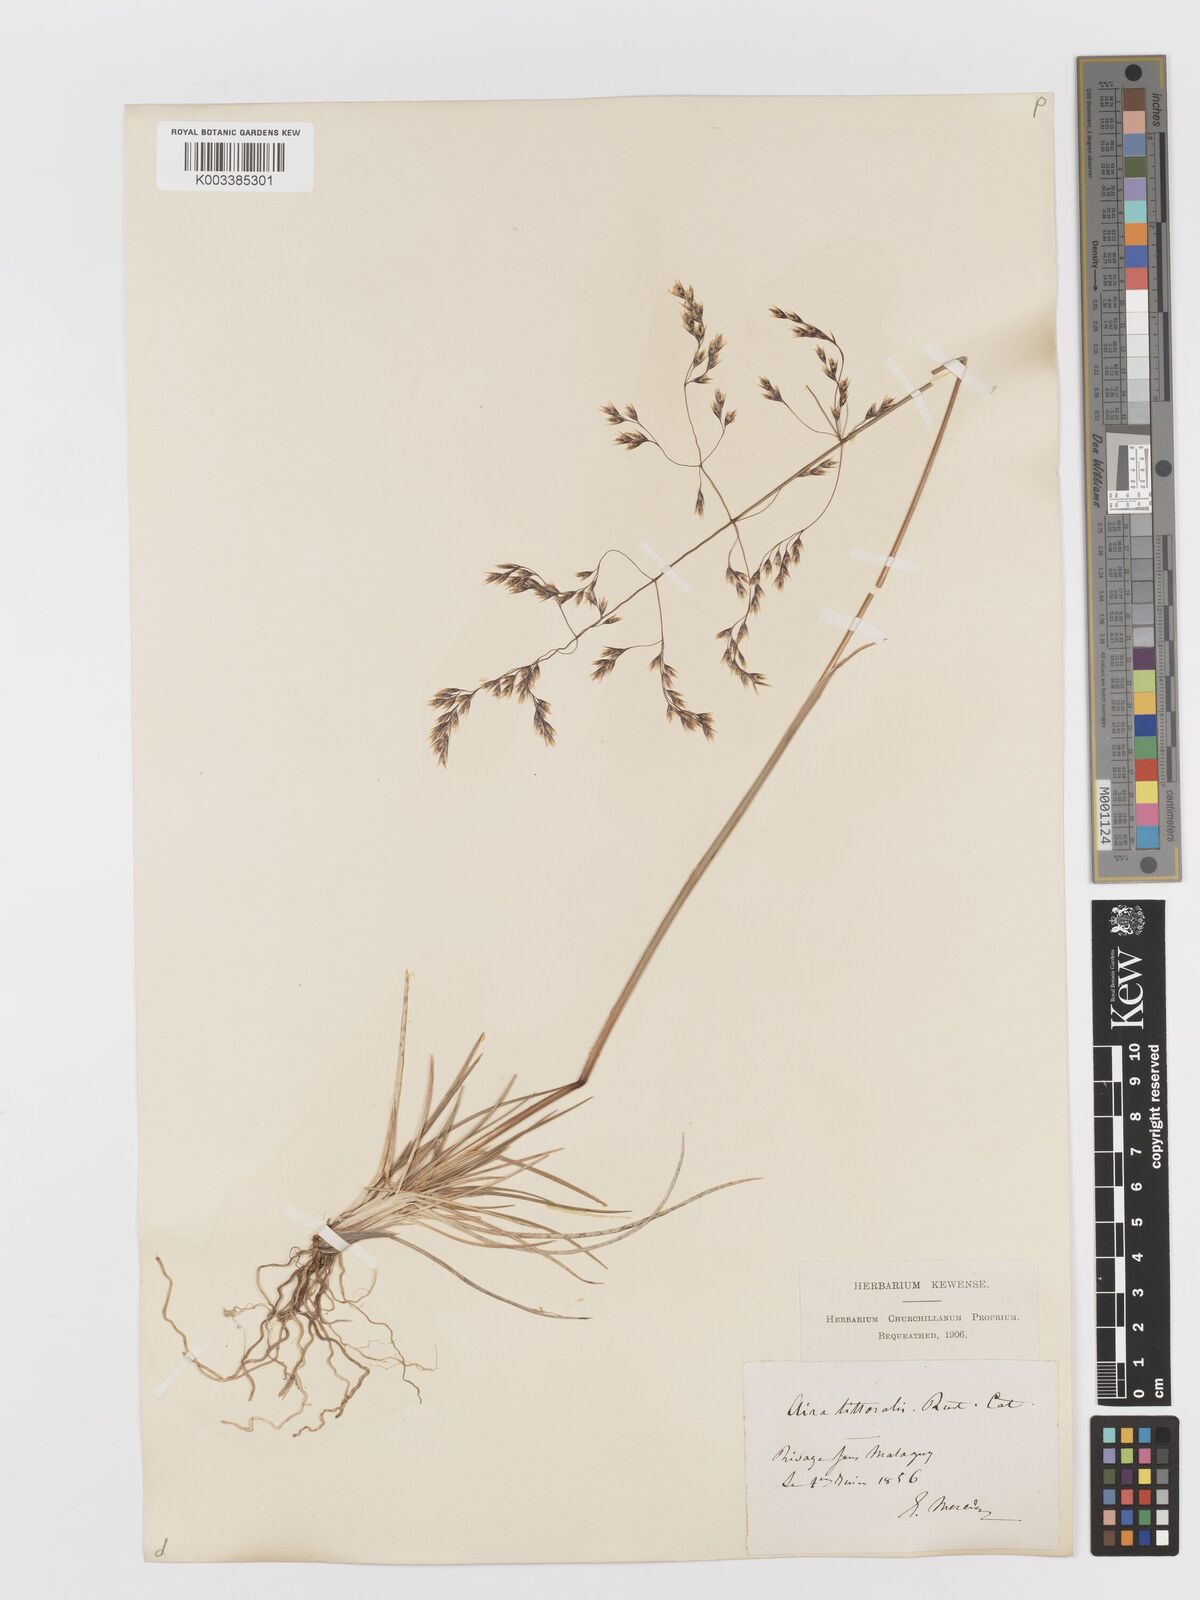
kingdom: Plantae
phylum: Tracheophyta
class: Liliopsida
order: Poales
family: Poaceae
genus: Deschampsia
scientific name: Deschampsia cespitosa
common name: Tufted hair-grass
